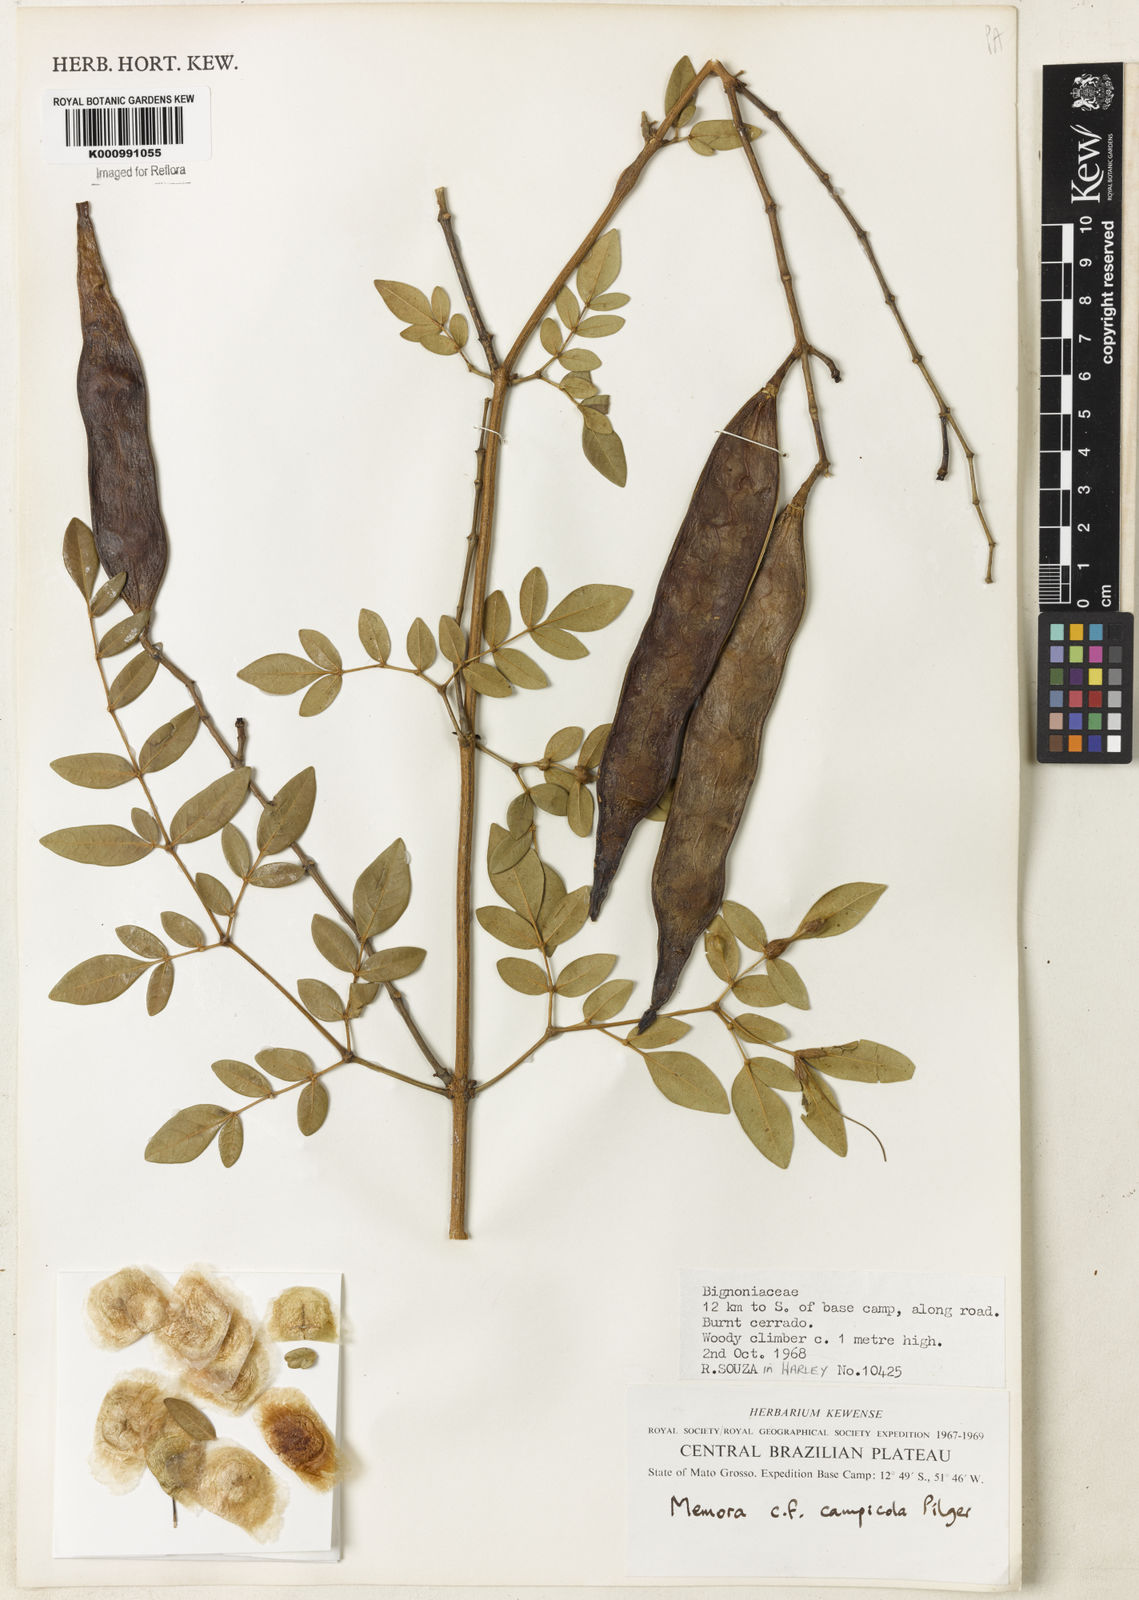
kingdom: Plantae
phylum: Tracheophyta
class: Magnoliopsida
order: Lamiales
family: Bignoniaceae
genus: Adenocalymma
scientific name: Adenocalymma campicola
